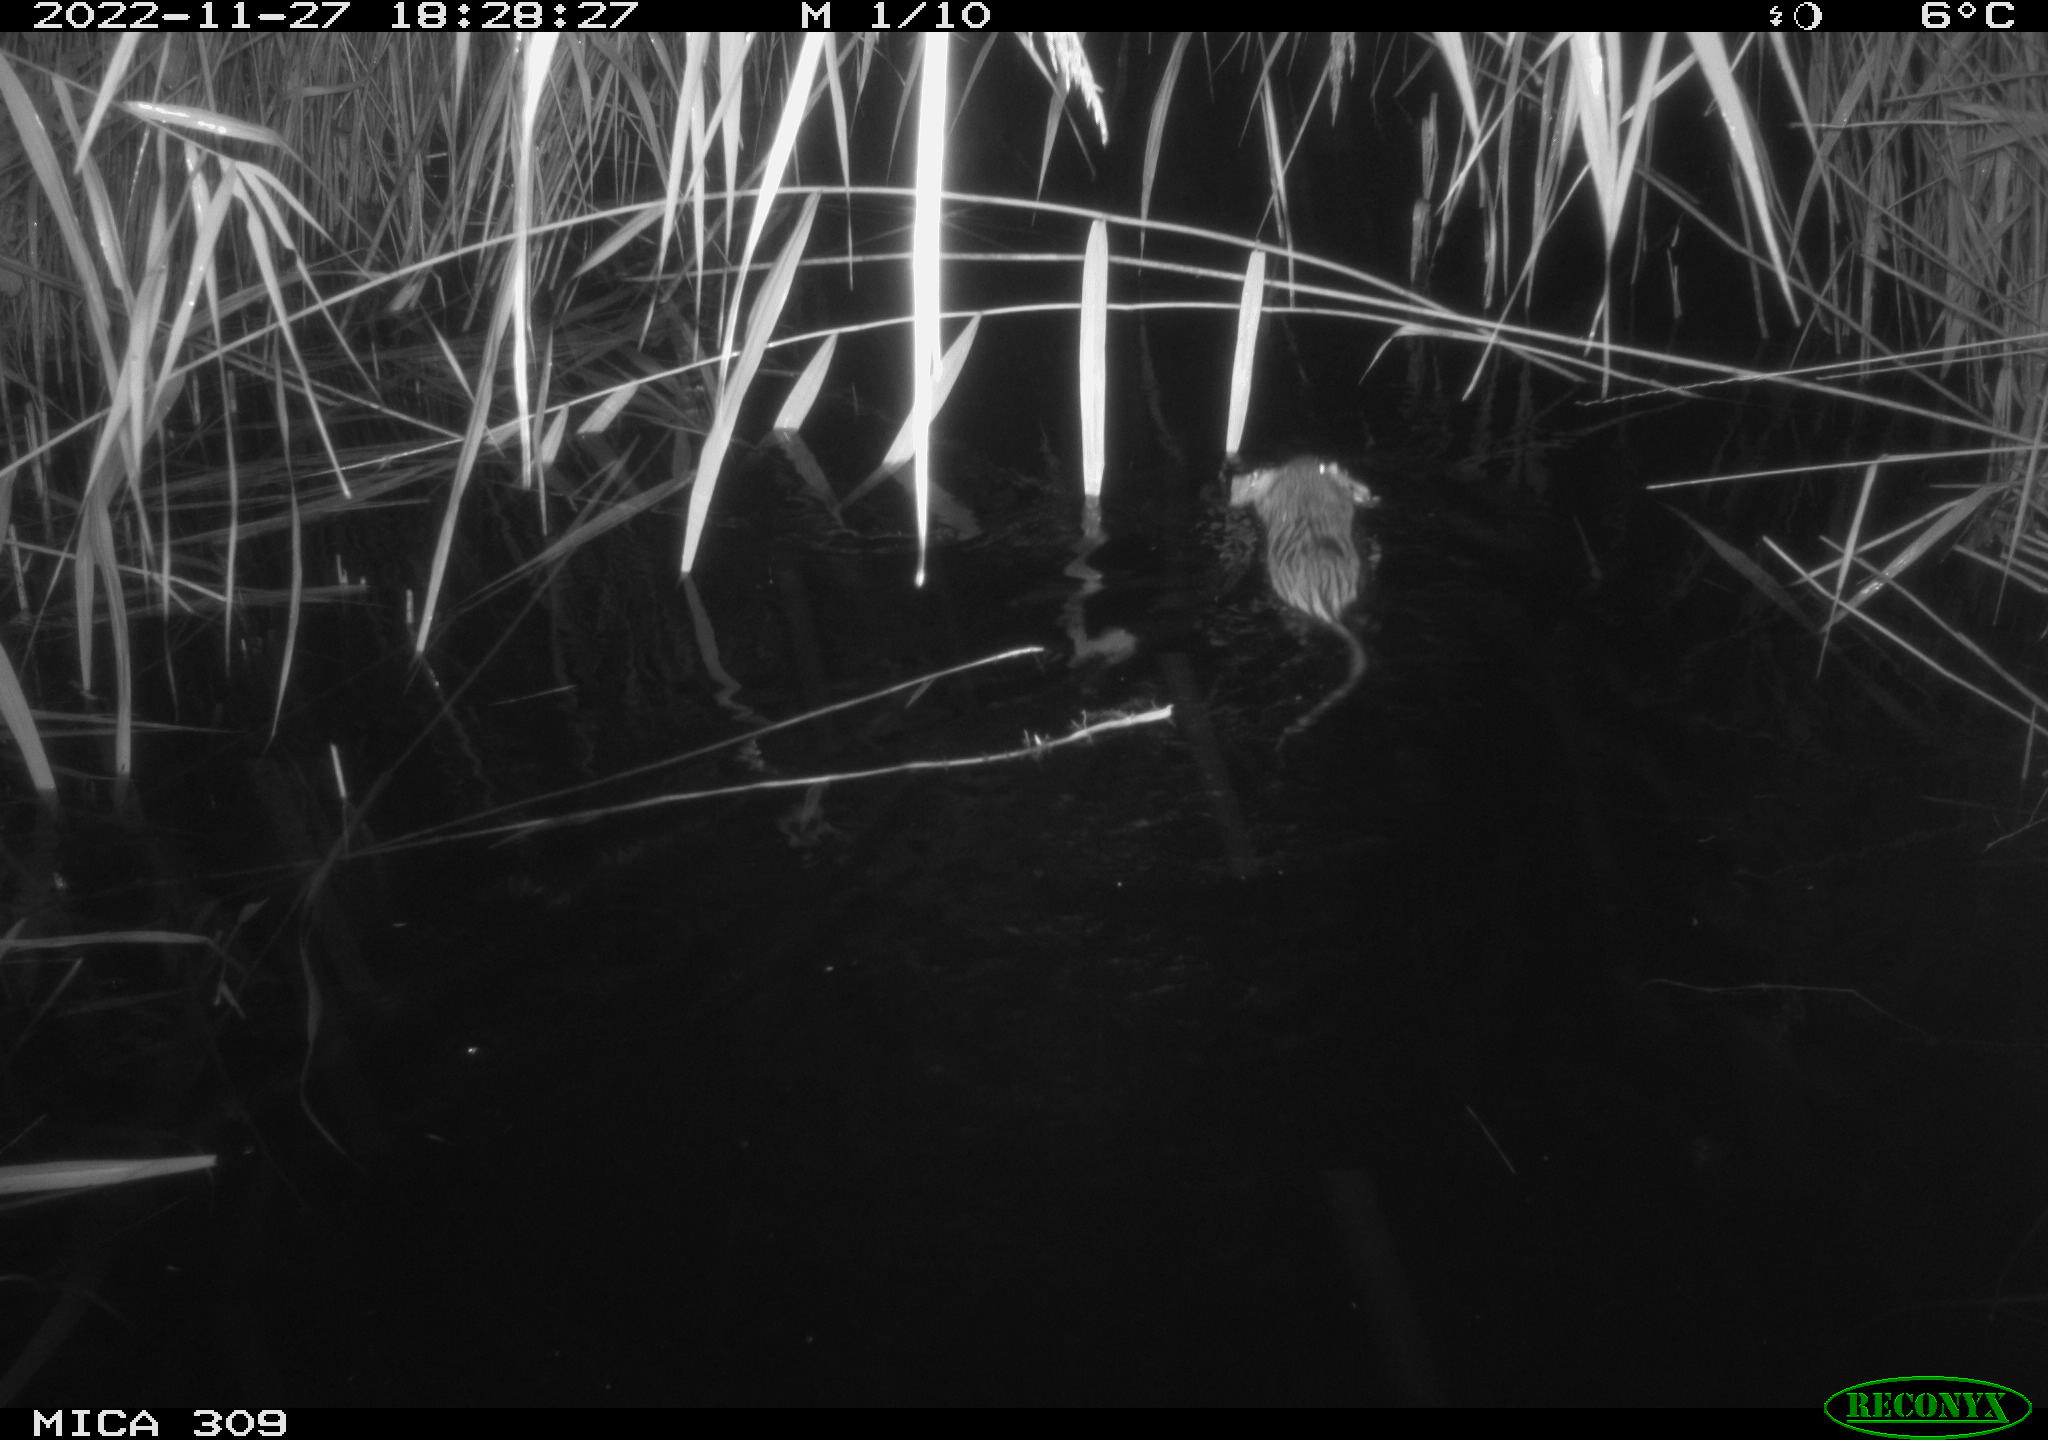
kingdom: Animalia
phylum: Chordata
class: Mammalia
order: Rodentia
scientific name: Rodentia
